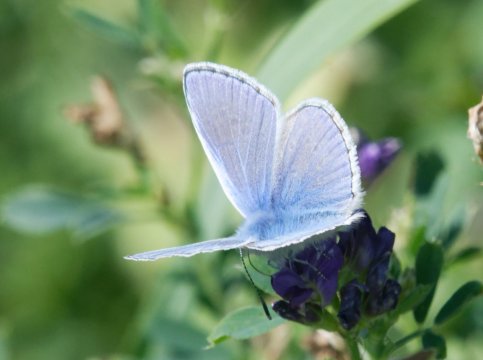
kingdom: Animalia
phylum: Arthropoda
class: Insecta
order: Lepidoptera
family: Lycaenidae
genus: Polyommatus
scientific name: Polyommatus icarus
